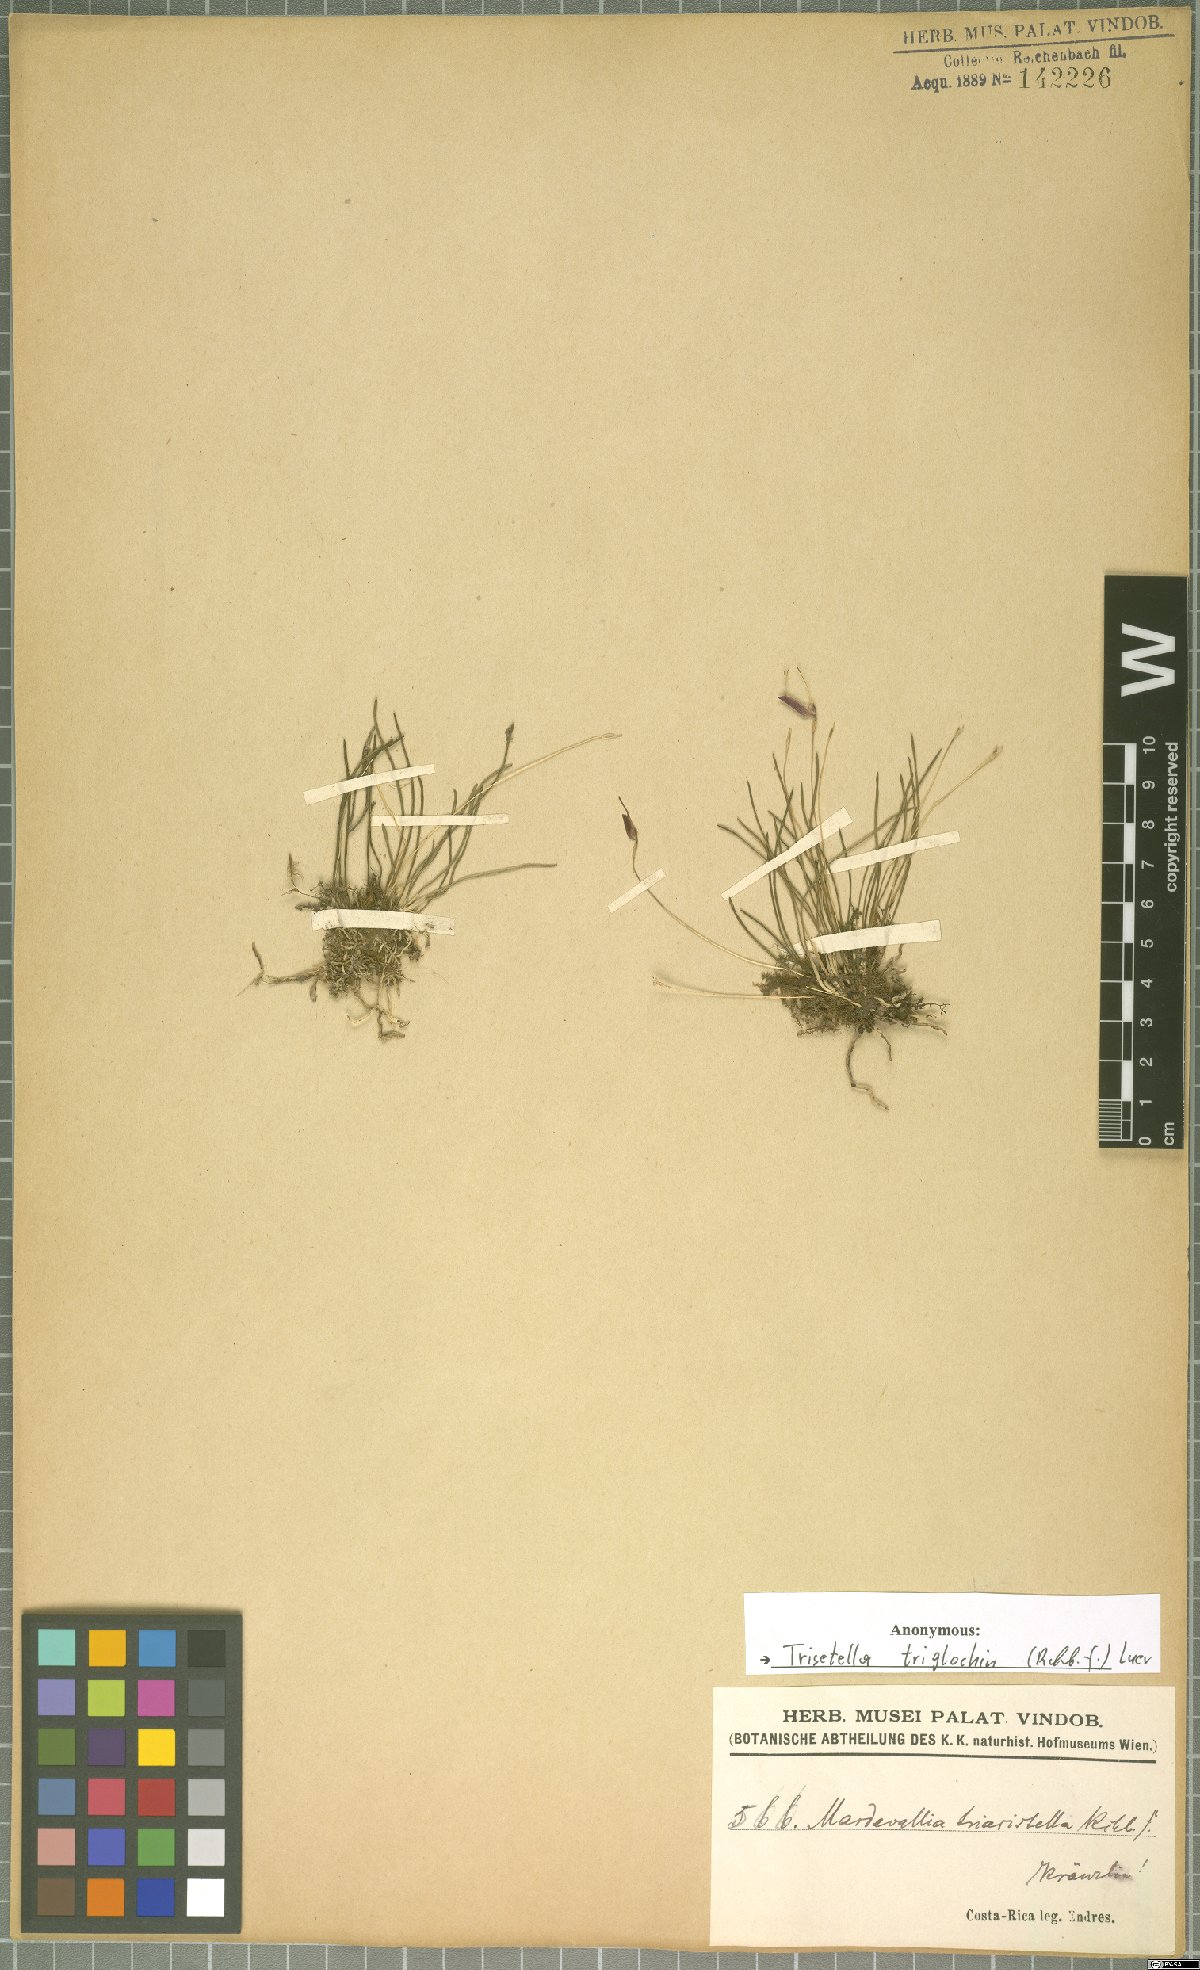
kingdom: Plantae
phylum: Tracheophyta
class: Liliopsida
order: Asparagales
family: Orchidaceae
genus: Trisetella
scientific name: Trisetella triglochin
